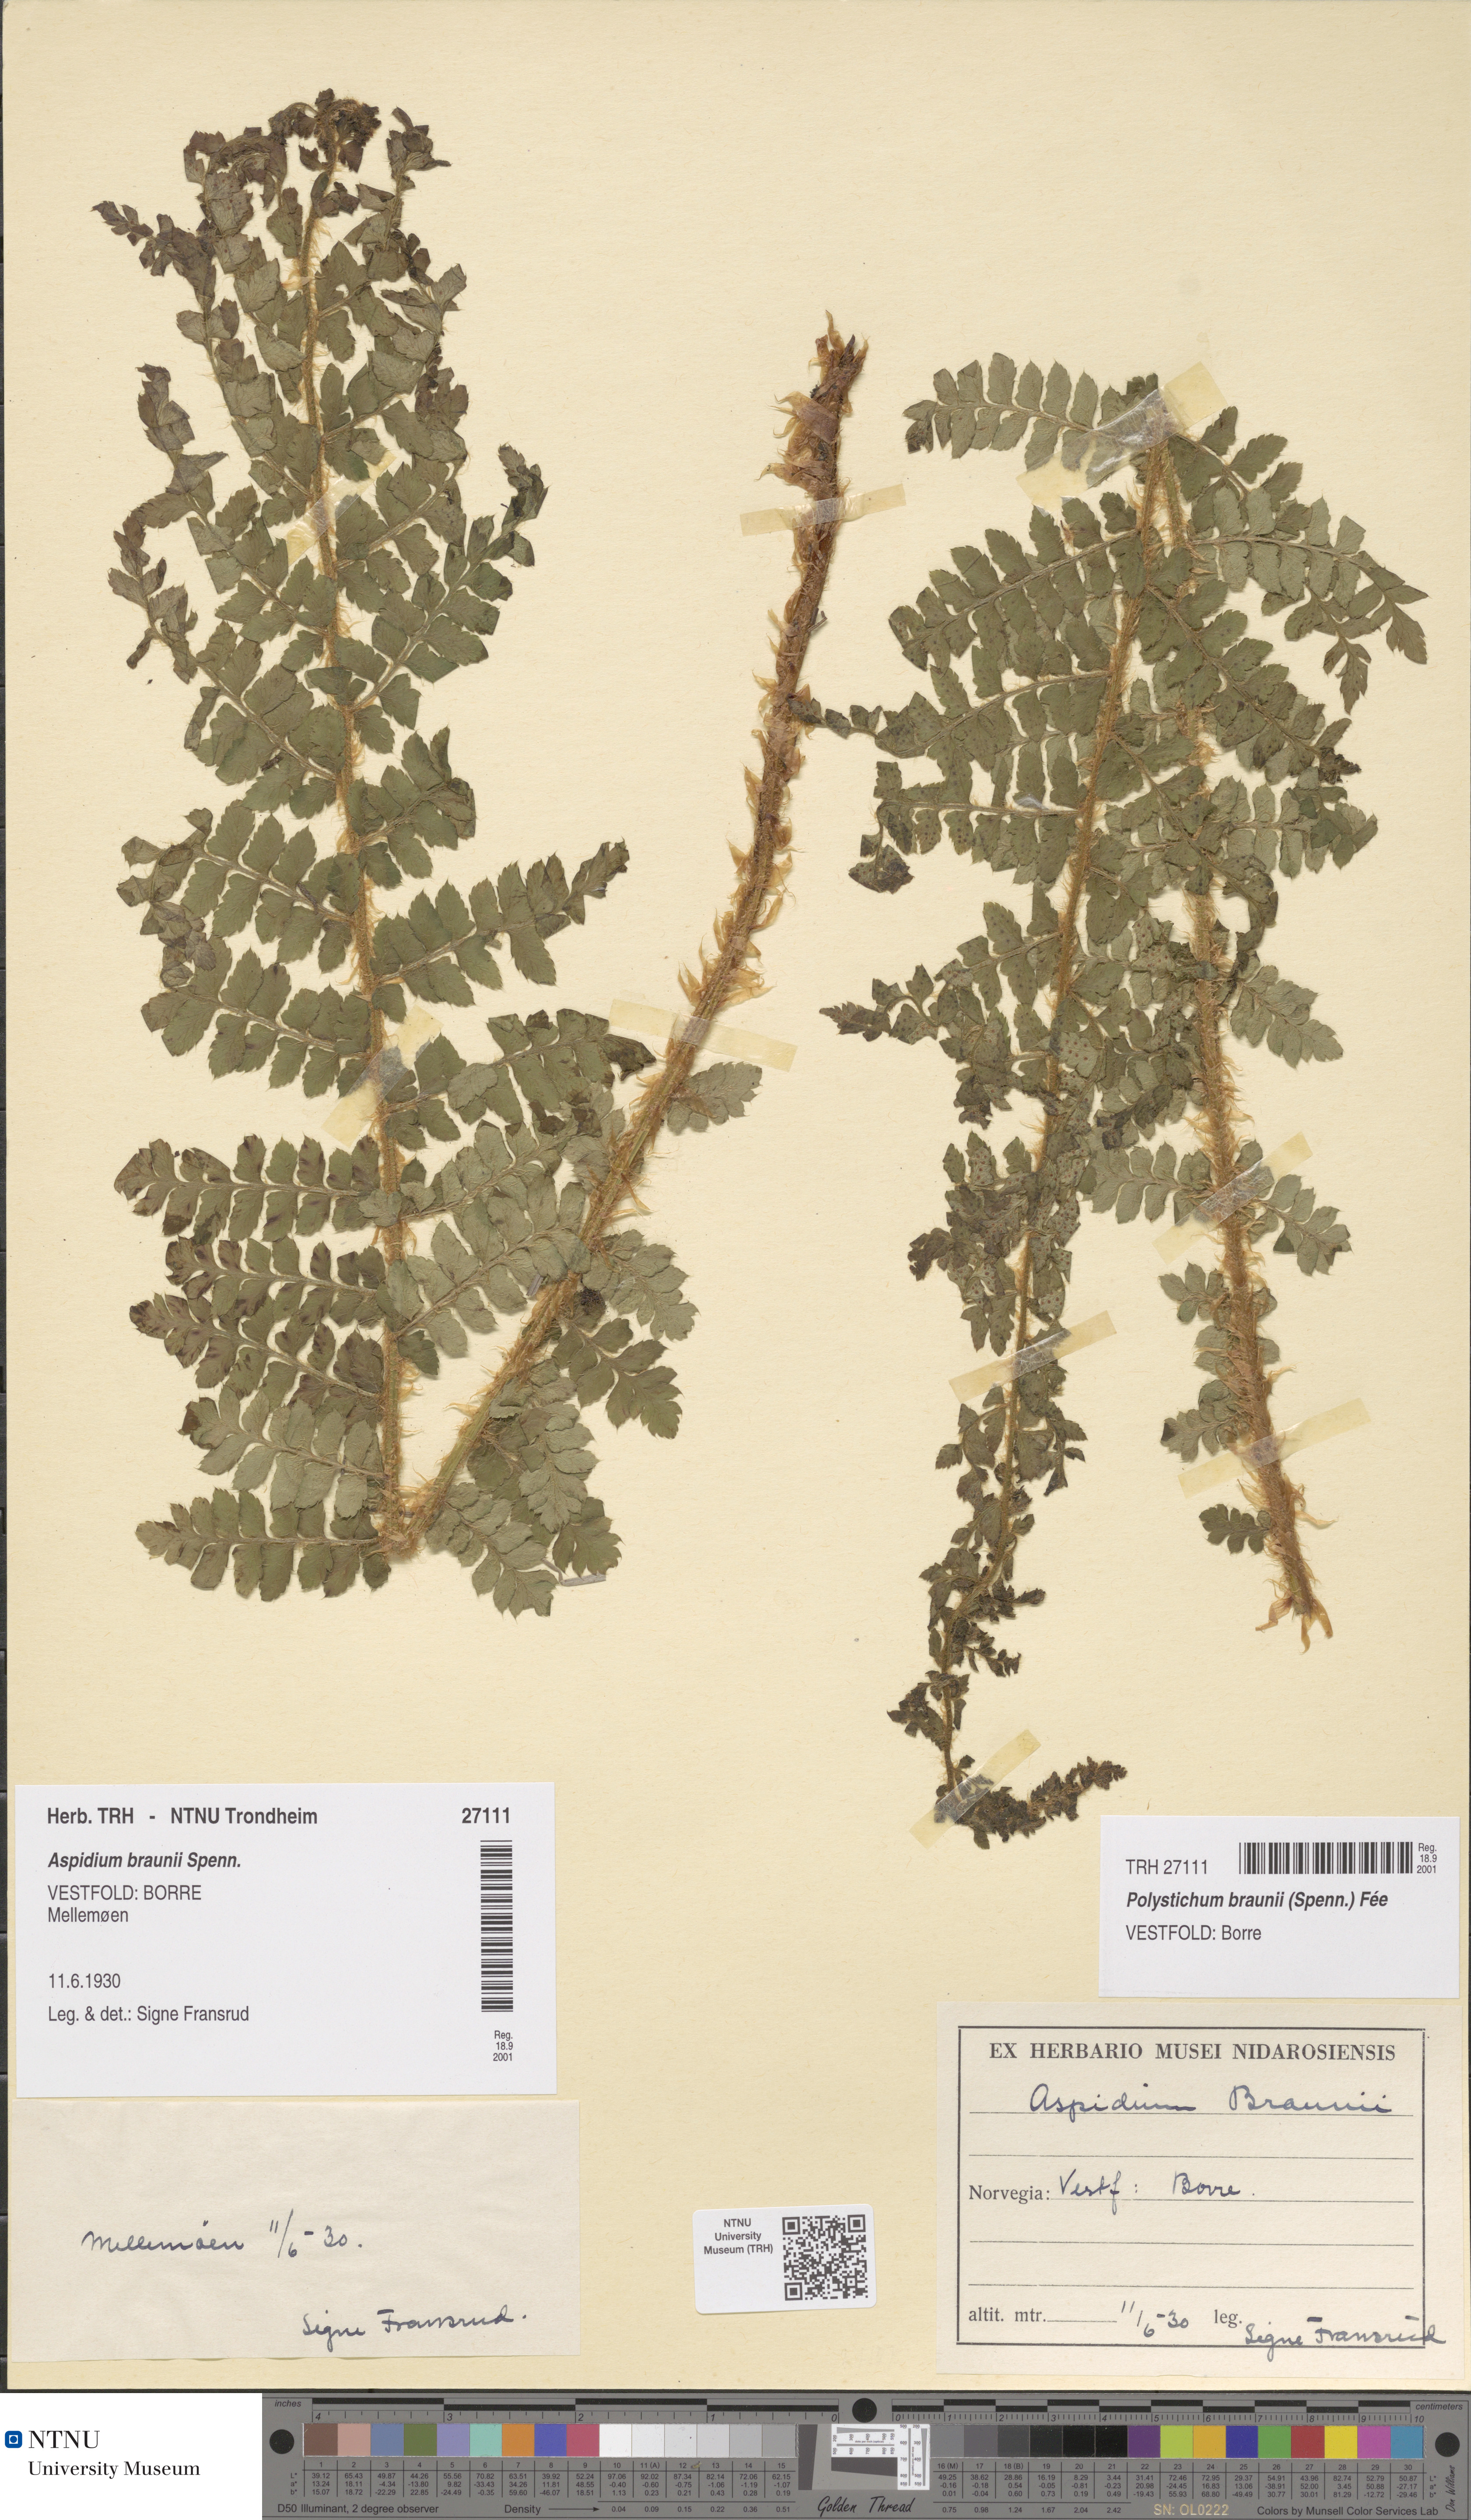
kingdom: Plantae
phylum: Tracheophyta
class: Polypodiopsida
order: Polypodiales
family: Dryopteridaceae
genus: Polystichum
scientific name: Polystichum braunii
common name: Braun's holly fern
